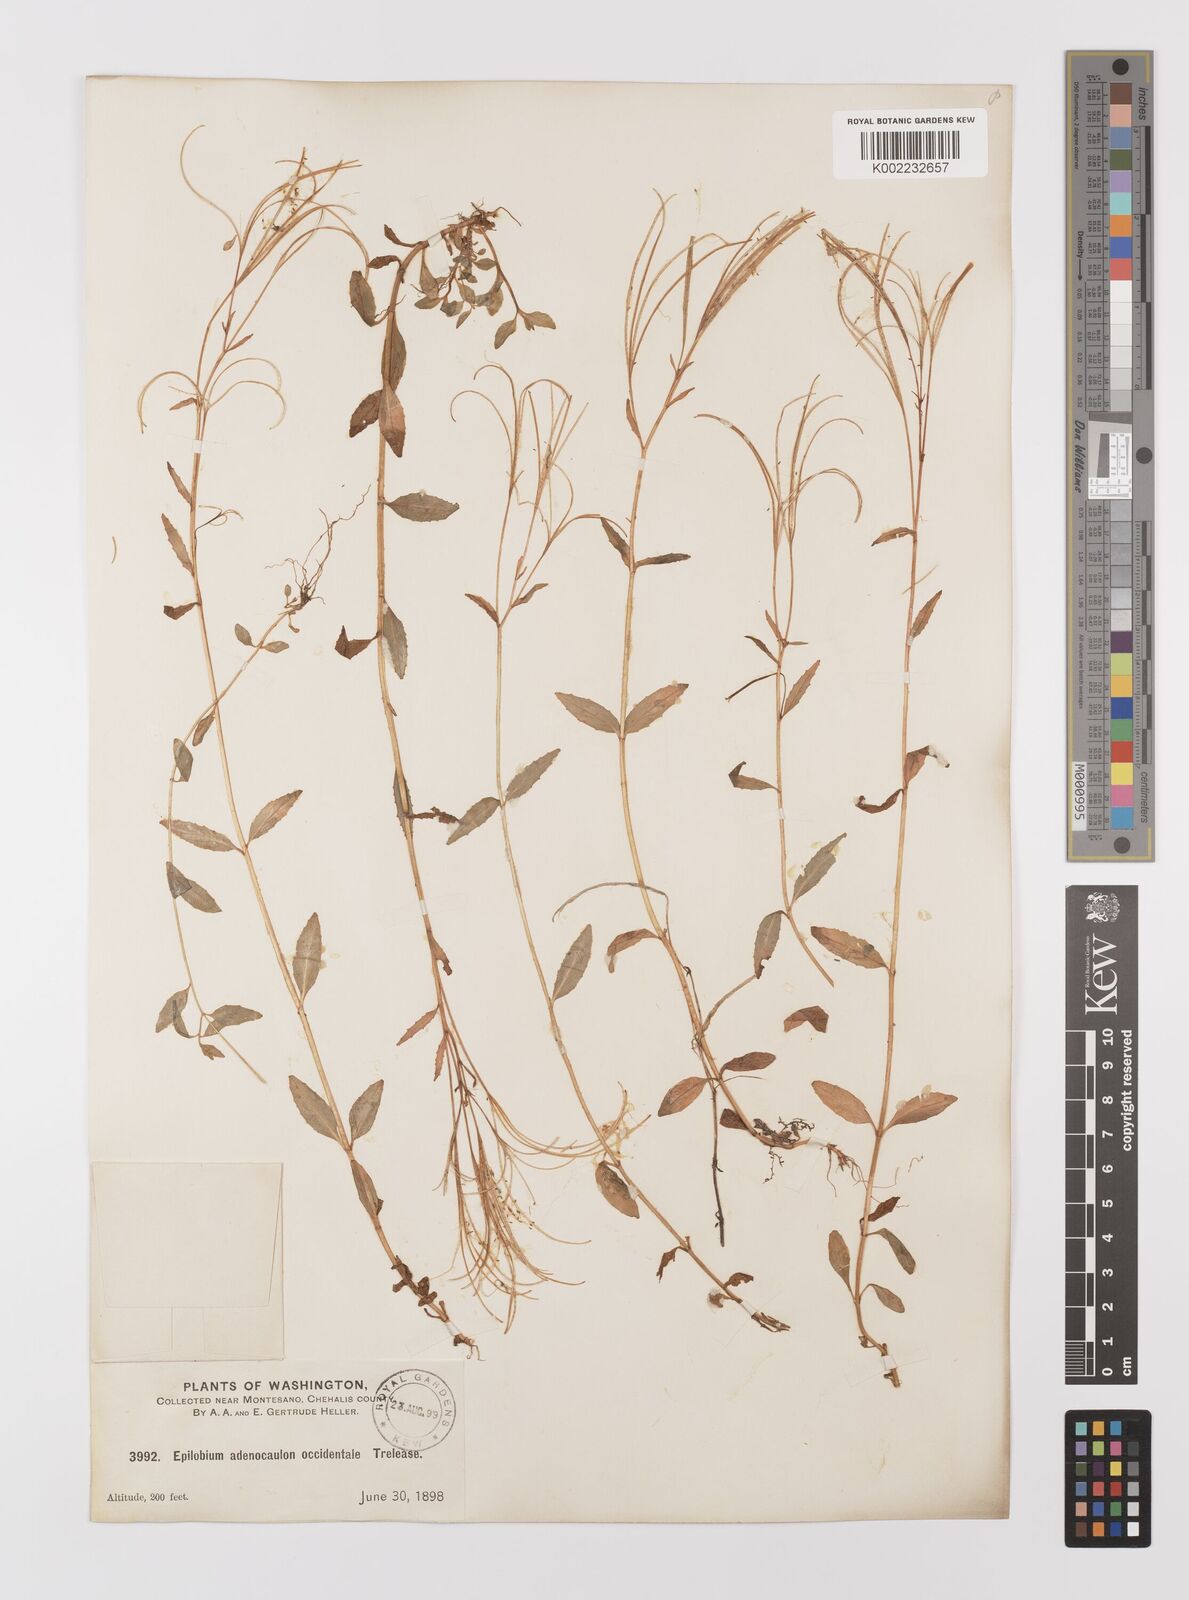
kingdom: Plantae
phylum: Tracheophyta
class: Magnoliopsida
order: Myrtales
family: Onagraceae
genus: Epilobium
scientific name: Epilobium ciliatum
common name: American willowherb
